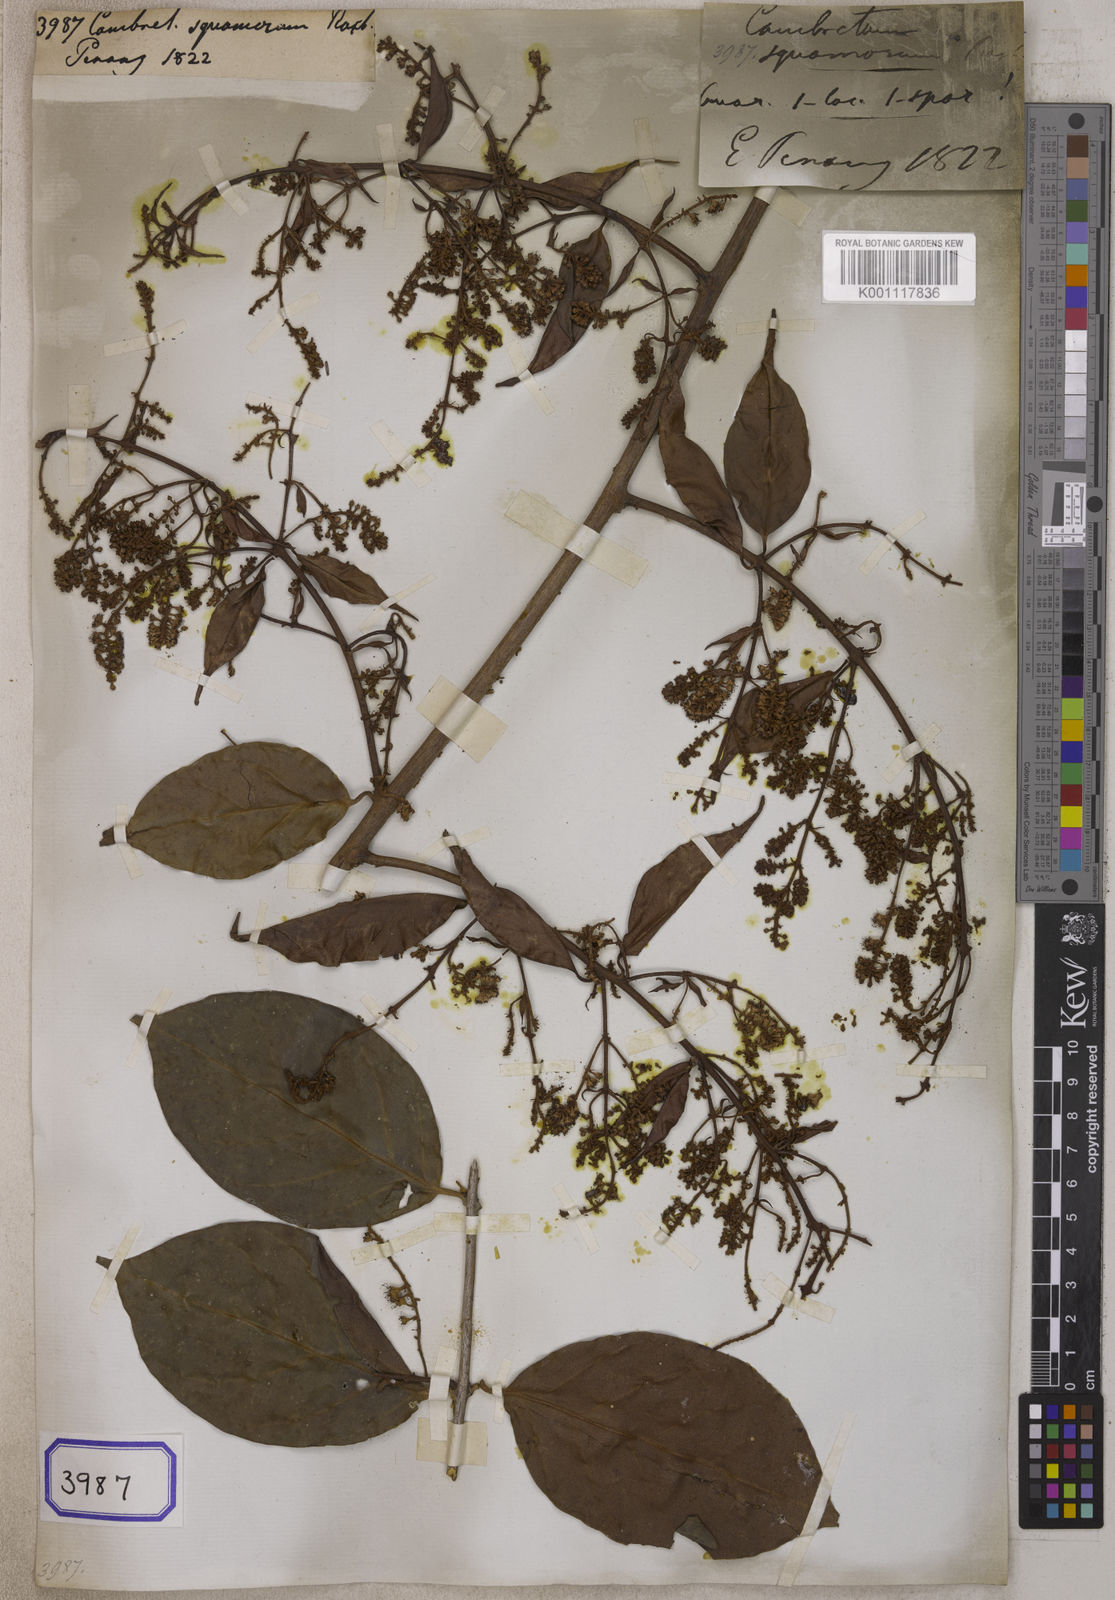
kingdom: Plantae
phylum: Tracheophyta
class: Magnoliopsida
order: Myrtales
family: Combretaceae
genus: Combretum
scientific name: Combretum
